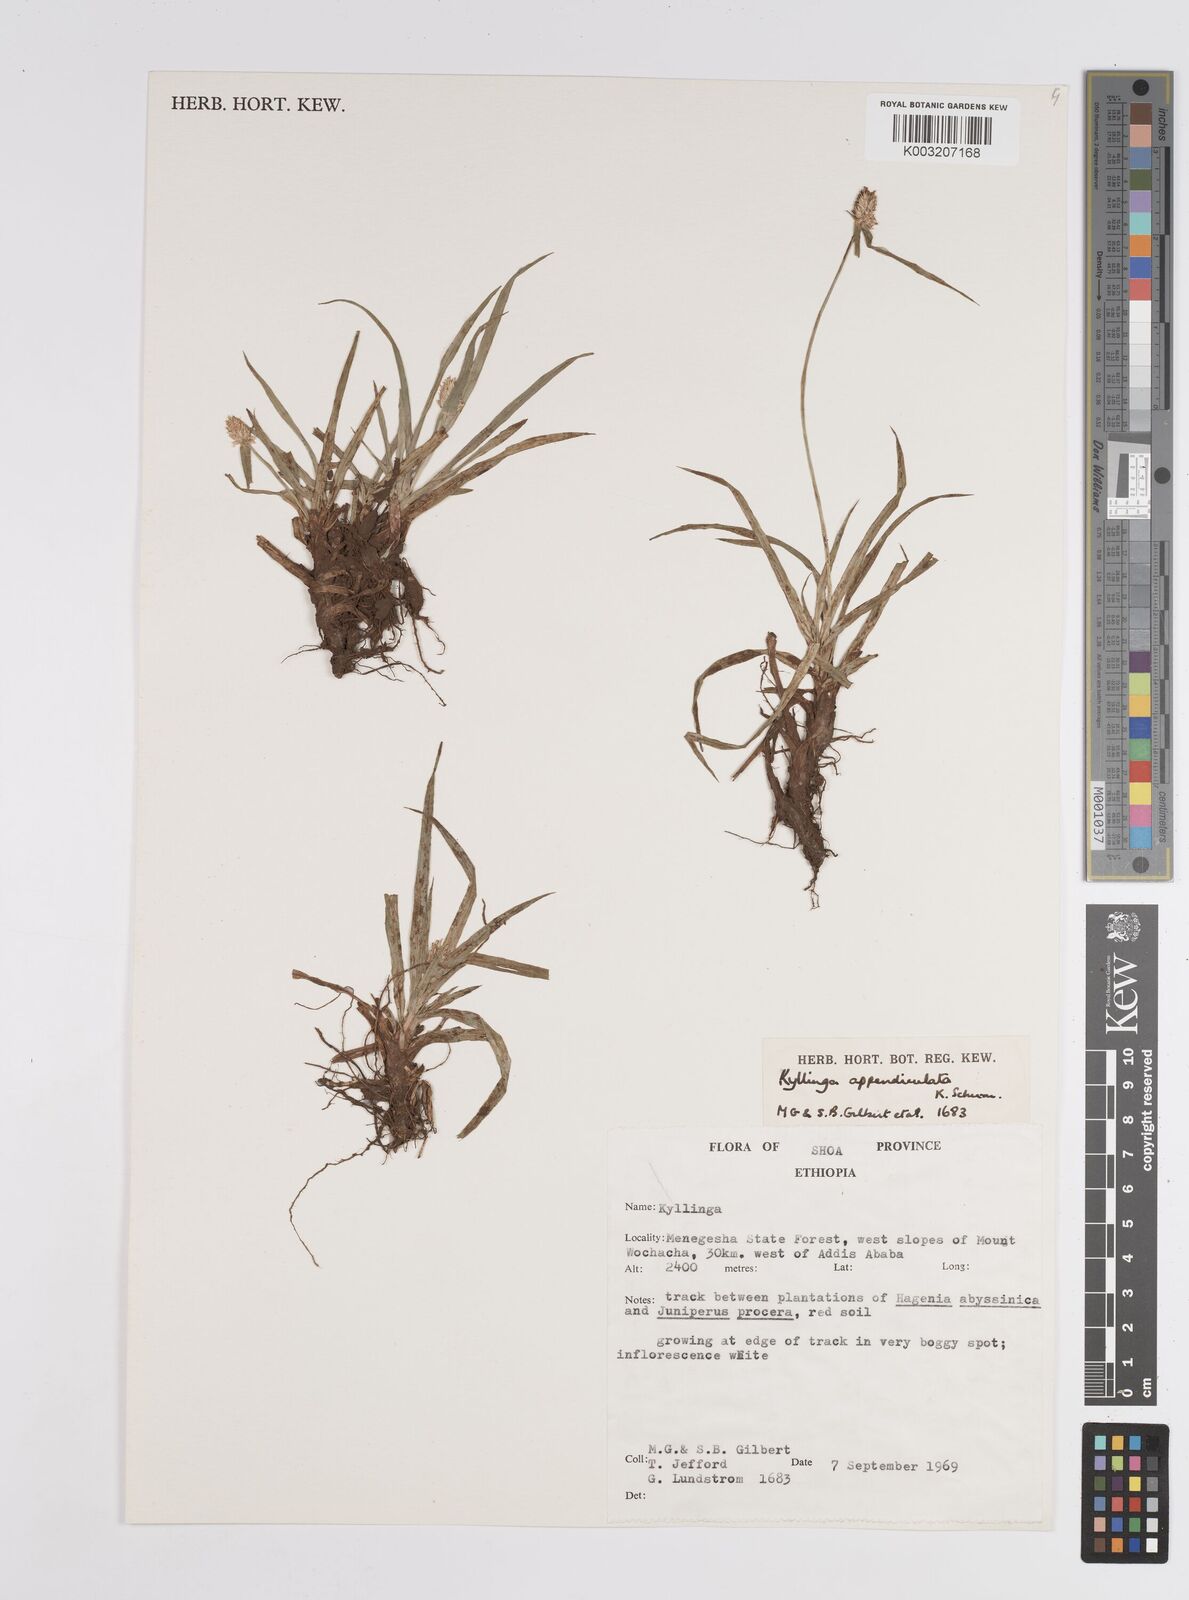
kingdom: Plantae
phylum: Tracheophyta
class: Liliopsida
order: Poales
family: Cyperaceae
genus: Cyperus
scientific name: Cyperus
